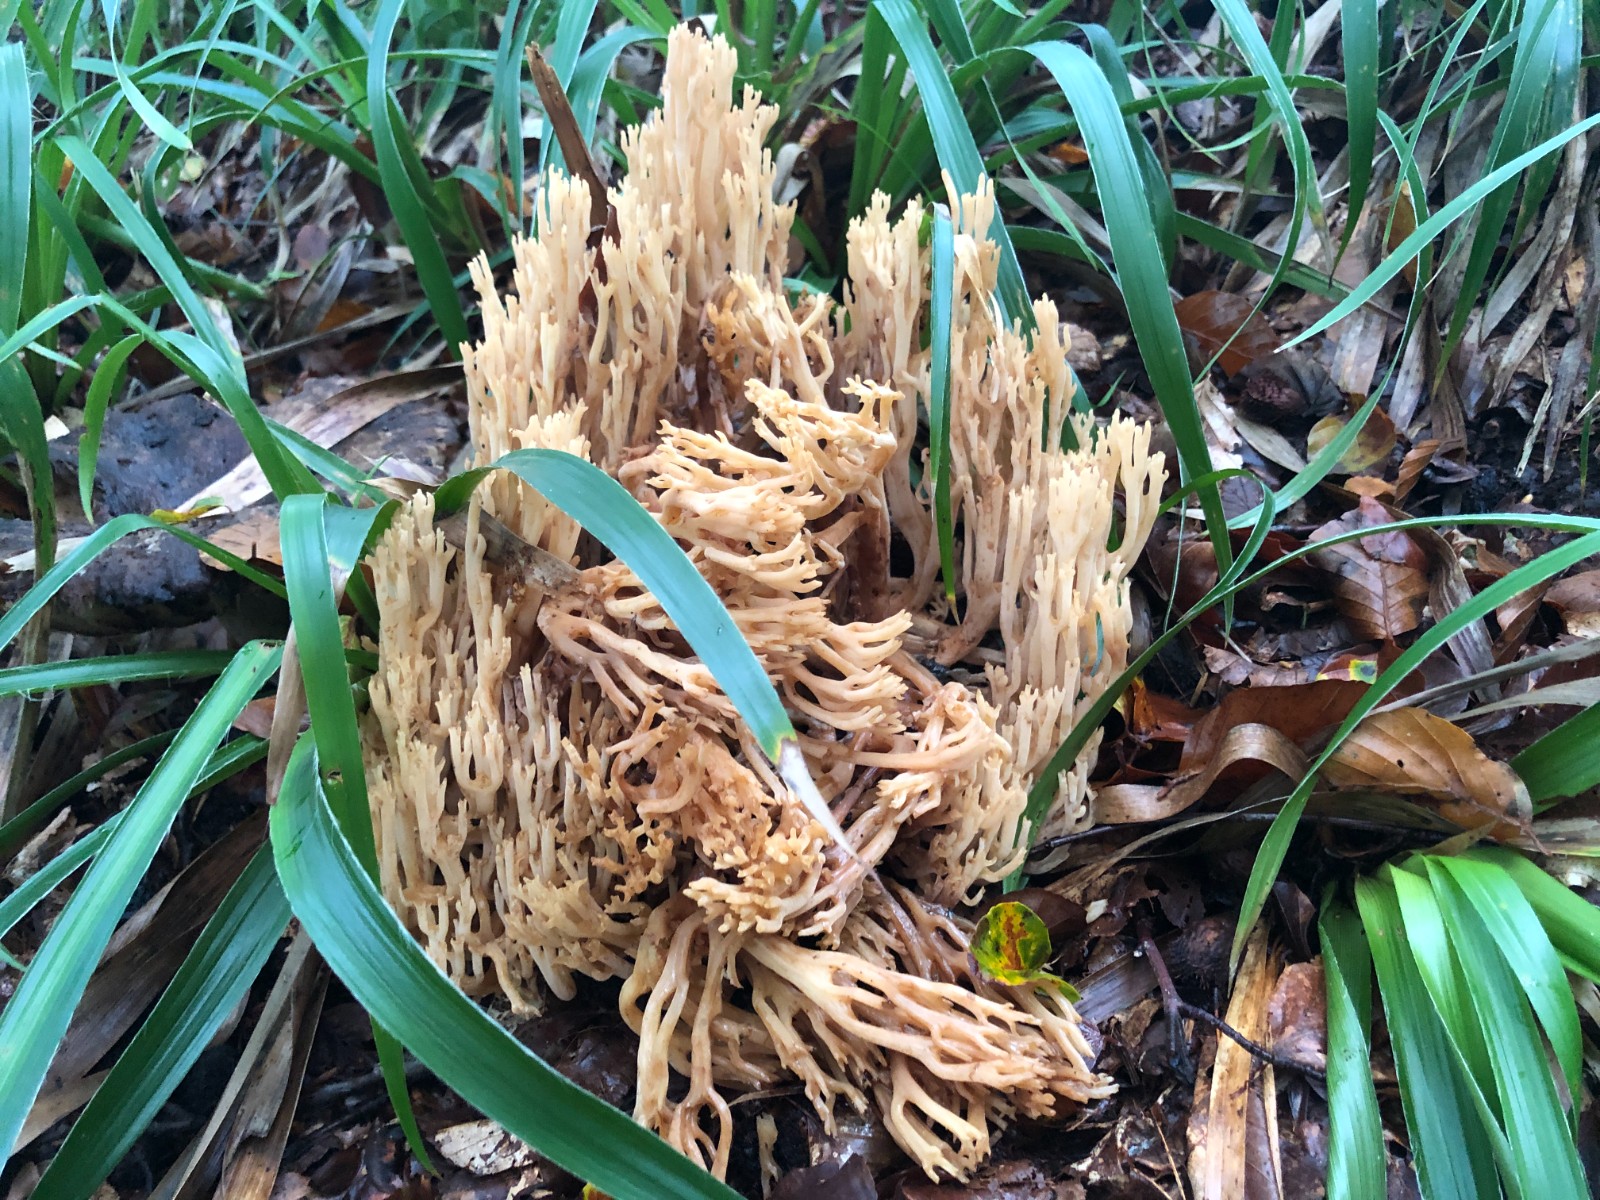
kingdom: Fungi
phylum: Basidiomycota
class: Agaricomycetes
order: Gomphales
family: Gomphaceae
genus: Ramaria
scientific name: Ramaria flavescens
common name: stor koralsvamp
